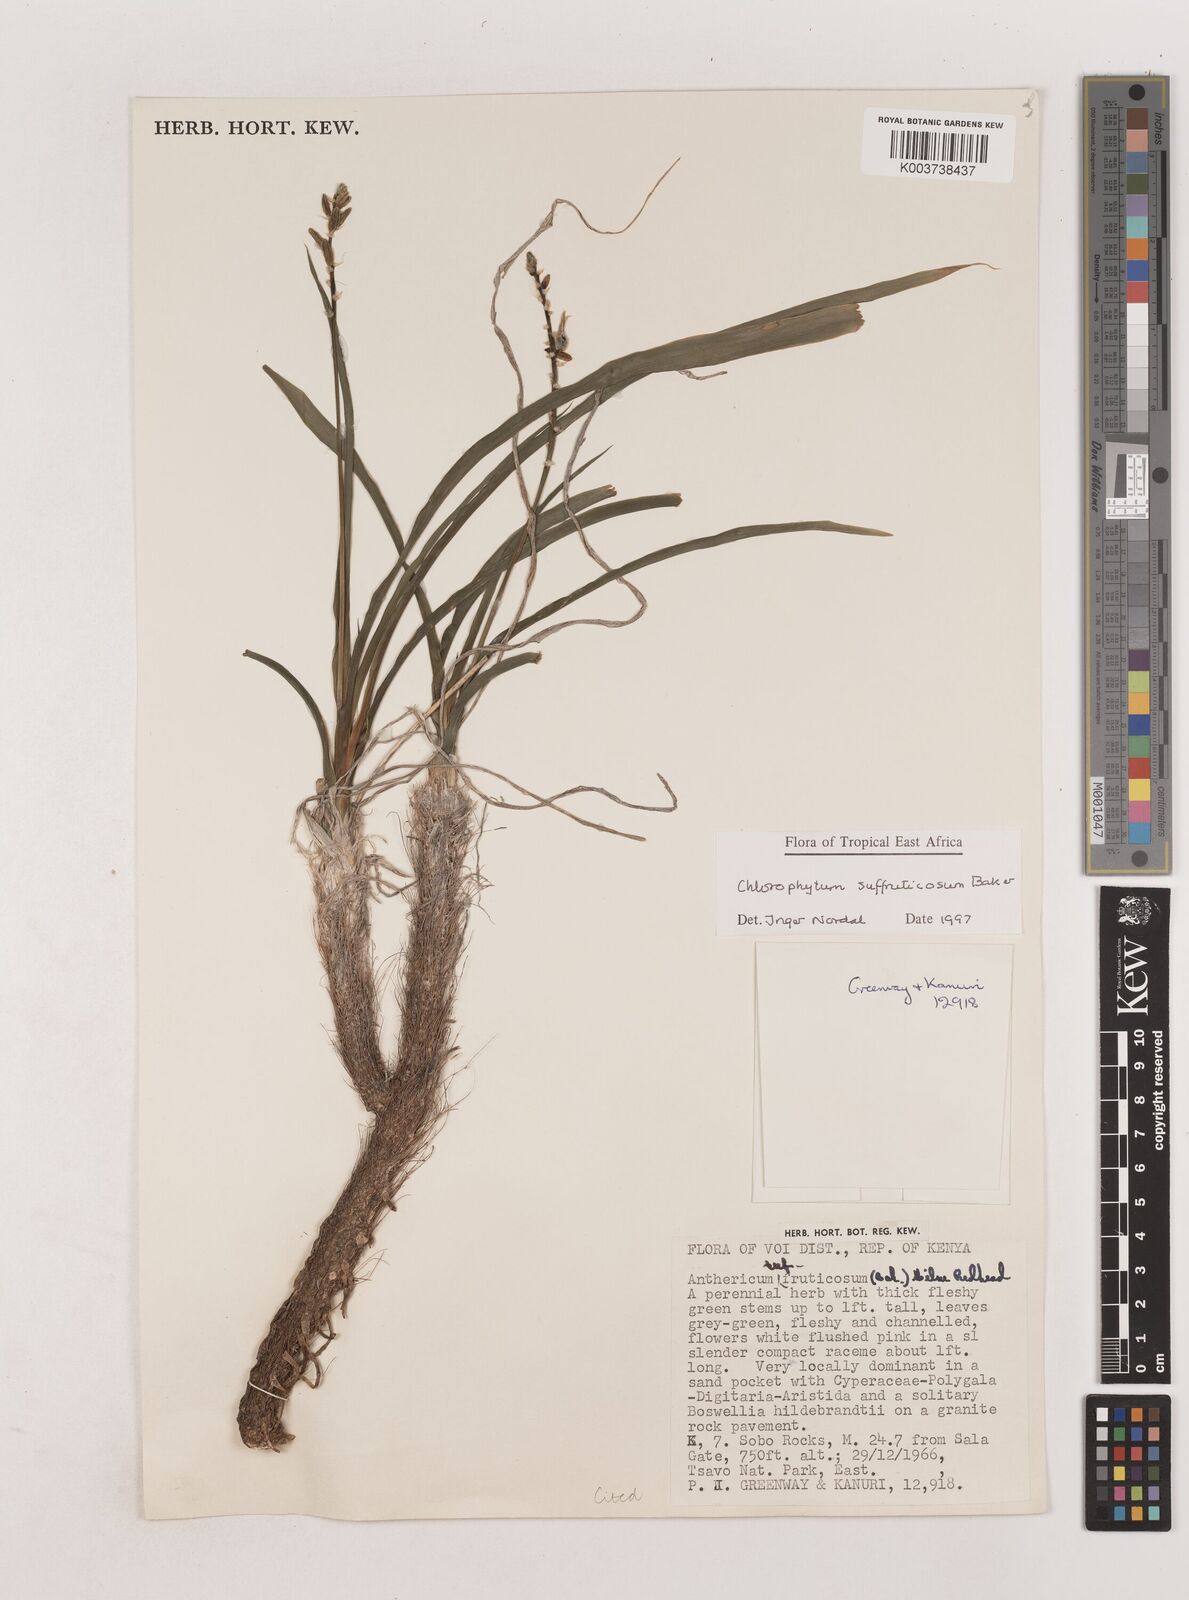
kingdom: Plantae
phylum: Tracheophyta
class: Liliopsida
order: Asparagales
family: Asparagaceae
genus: Chlorophytum
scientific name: Chlorophytum suffruticosum
